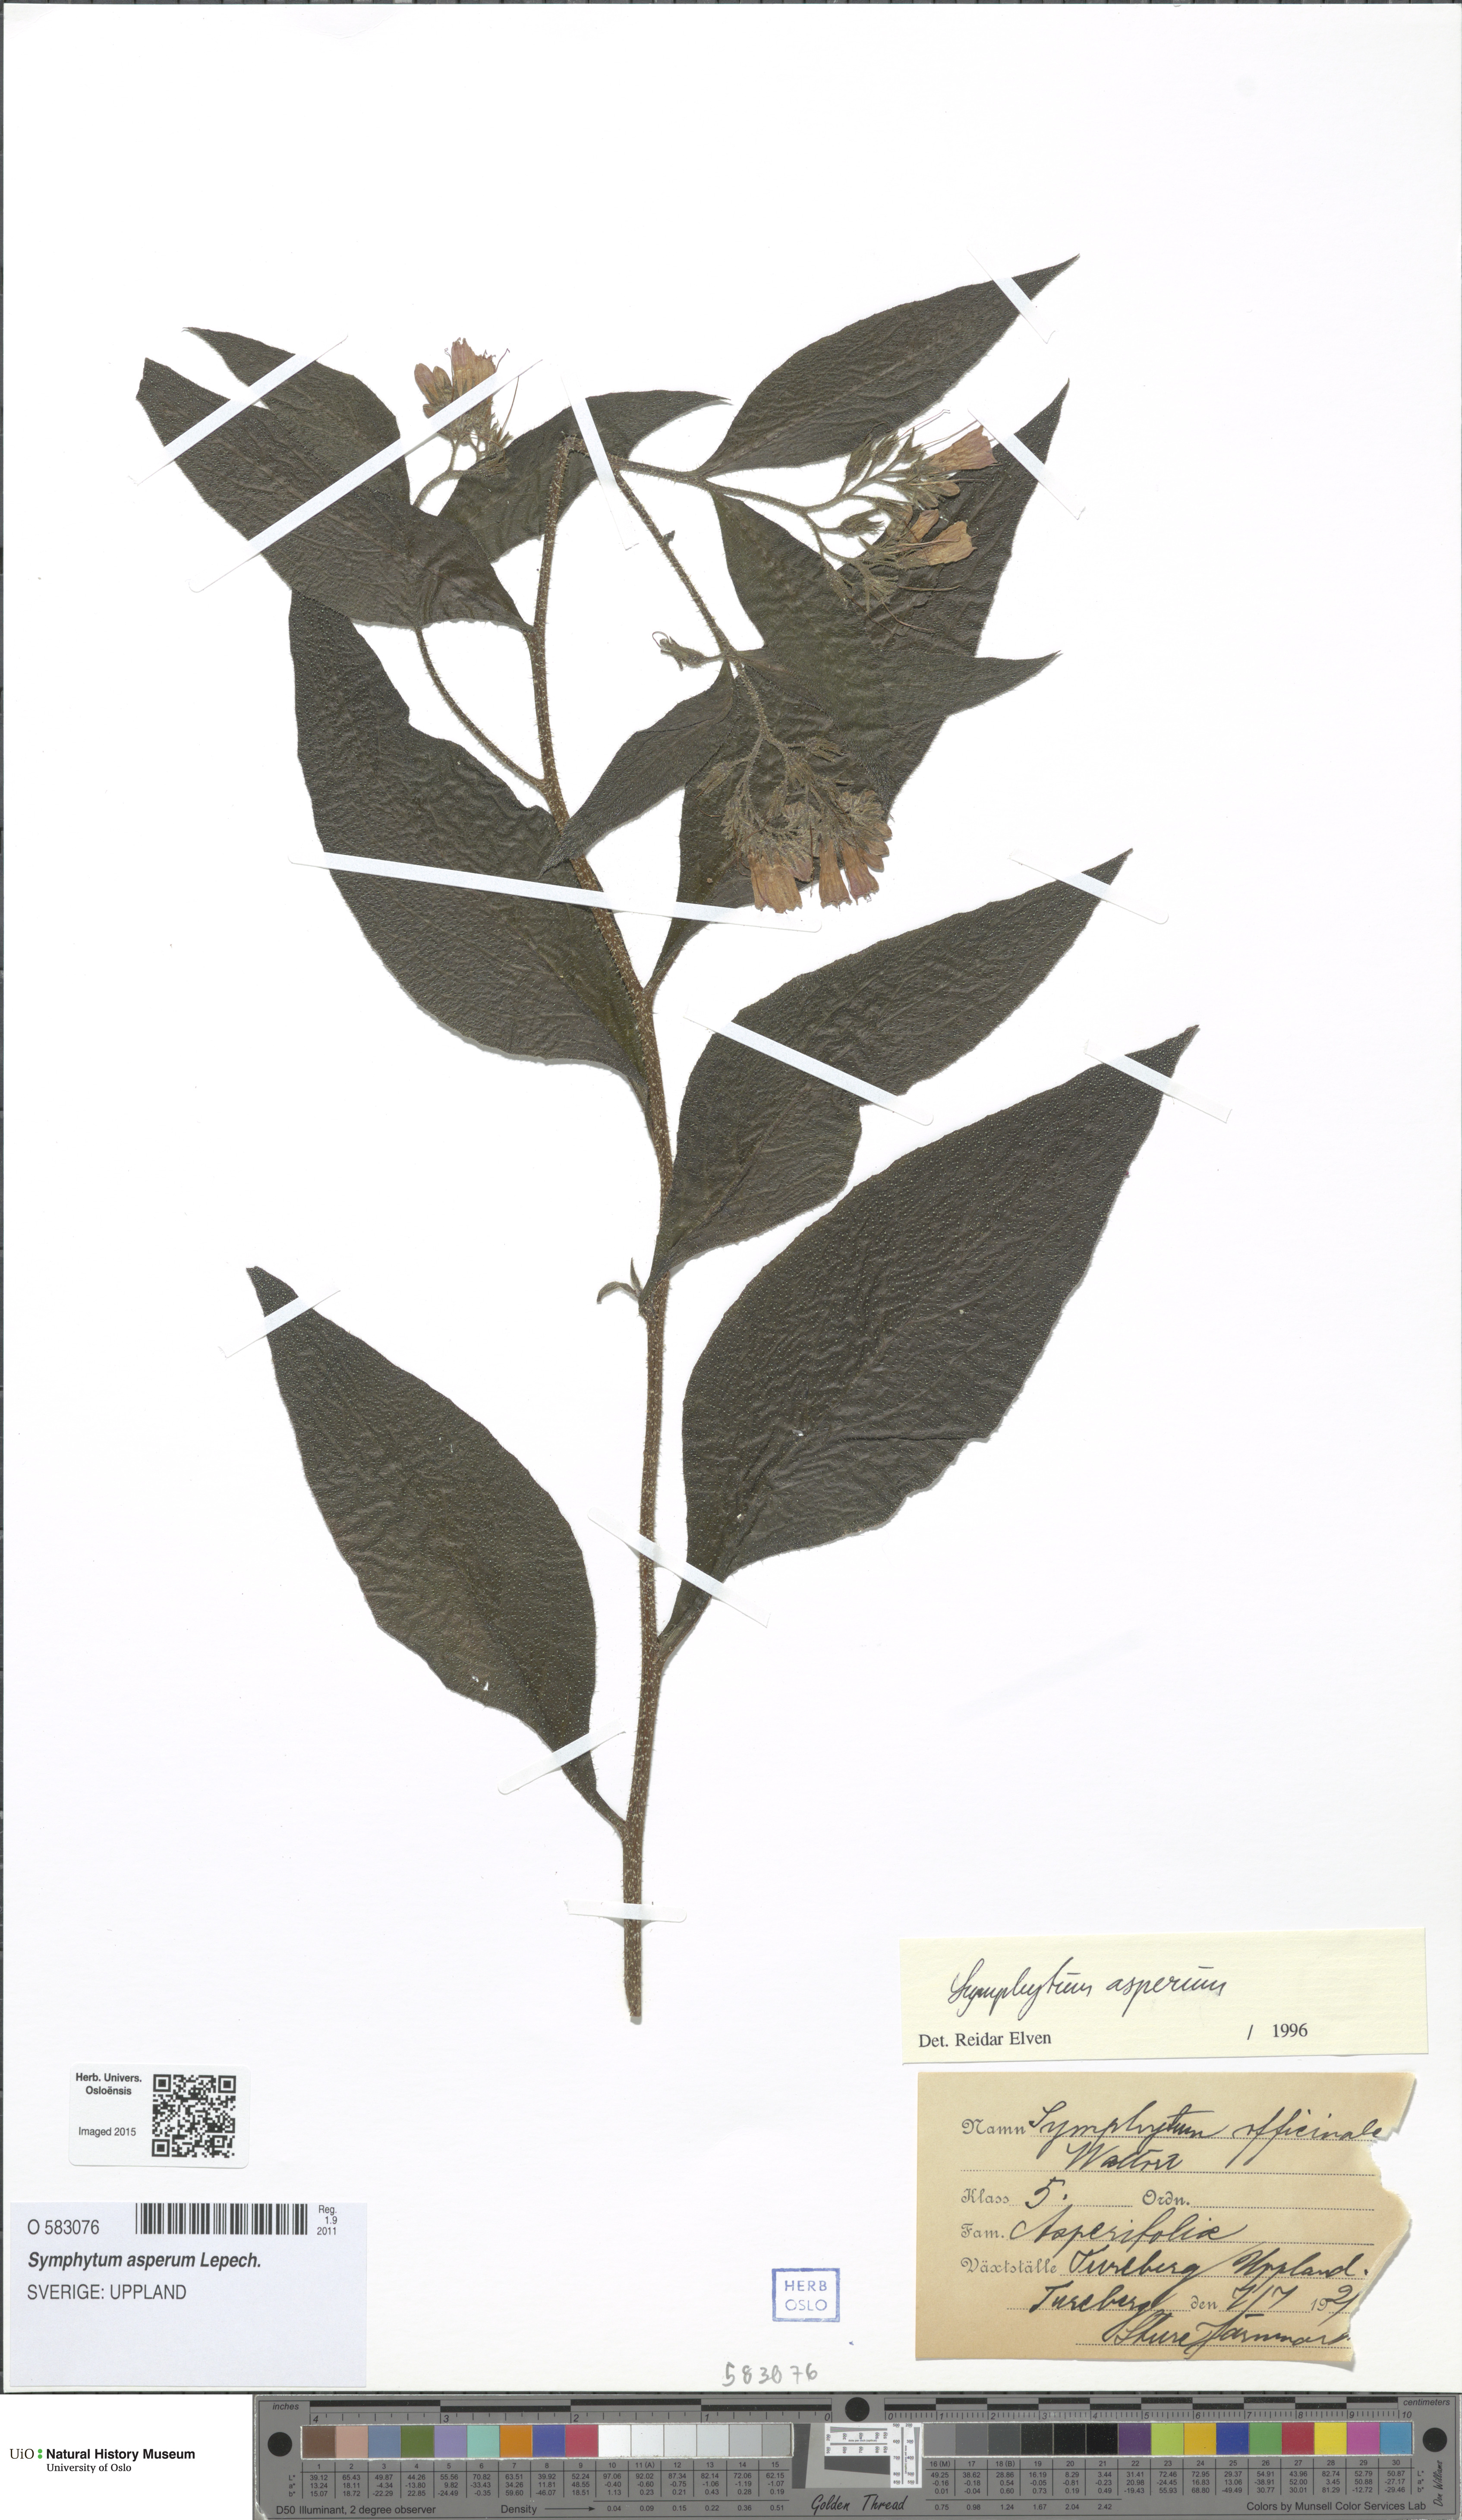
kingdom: Plantae
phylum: Tracheophyta
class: Magnoliopsida
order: Boraginales
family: Boraginaceae
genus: Symphytum
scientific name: Symphytum asperum
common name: Prickly comfrey
